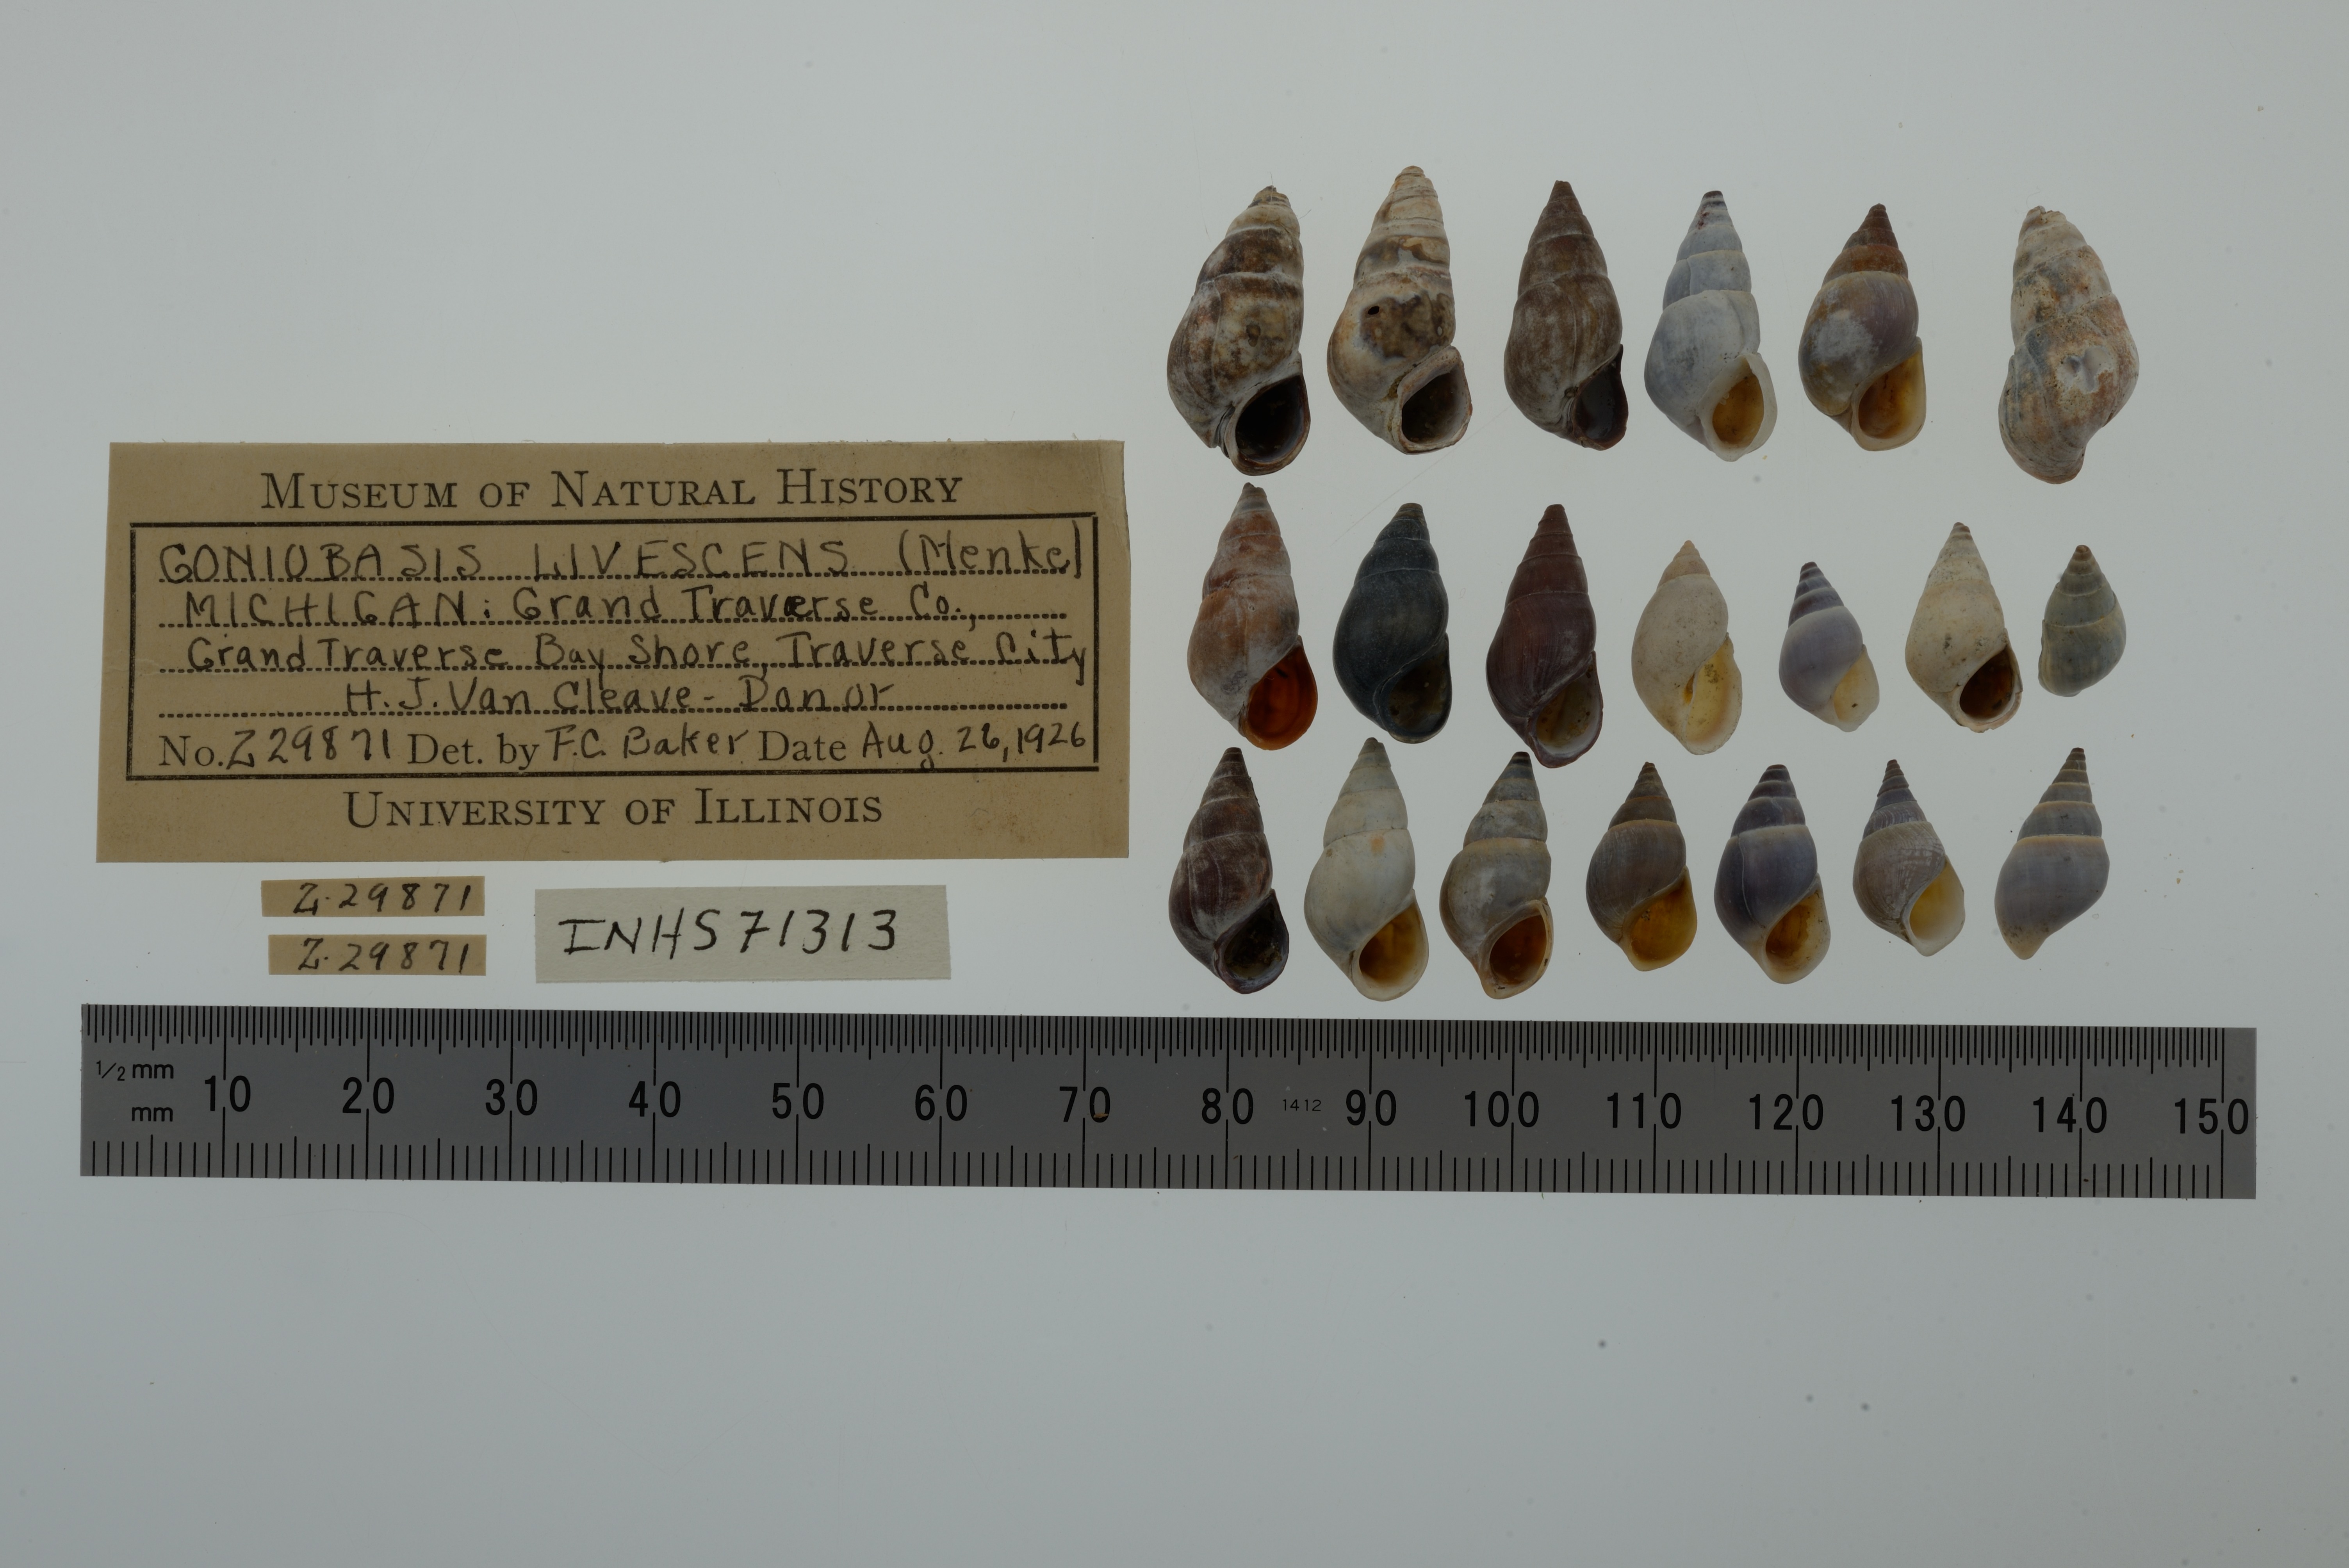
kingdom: Animalia
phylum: Mollusca
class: Gastropoda
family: Pleuroceridae
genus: Elimia
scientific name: Elimia livescens
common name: Liver elimia
